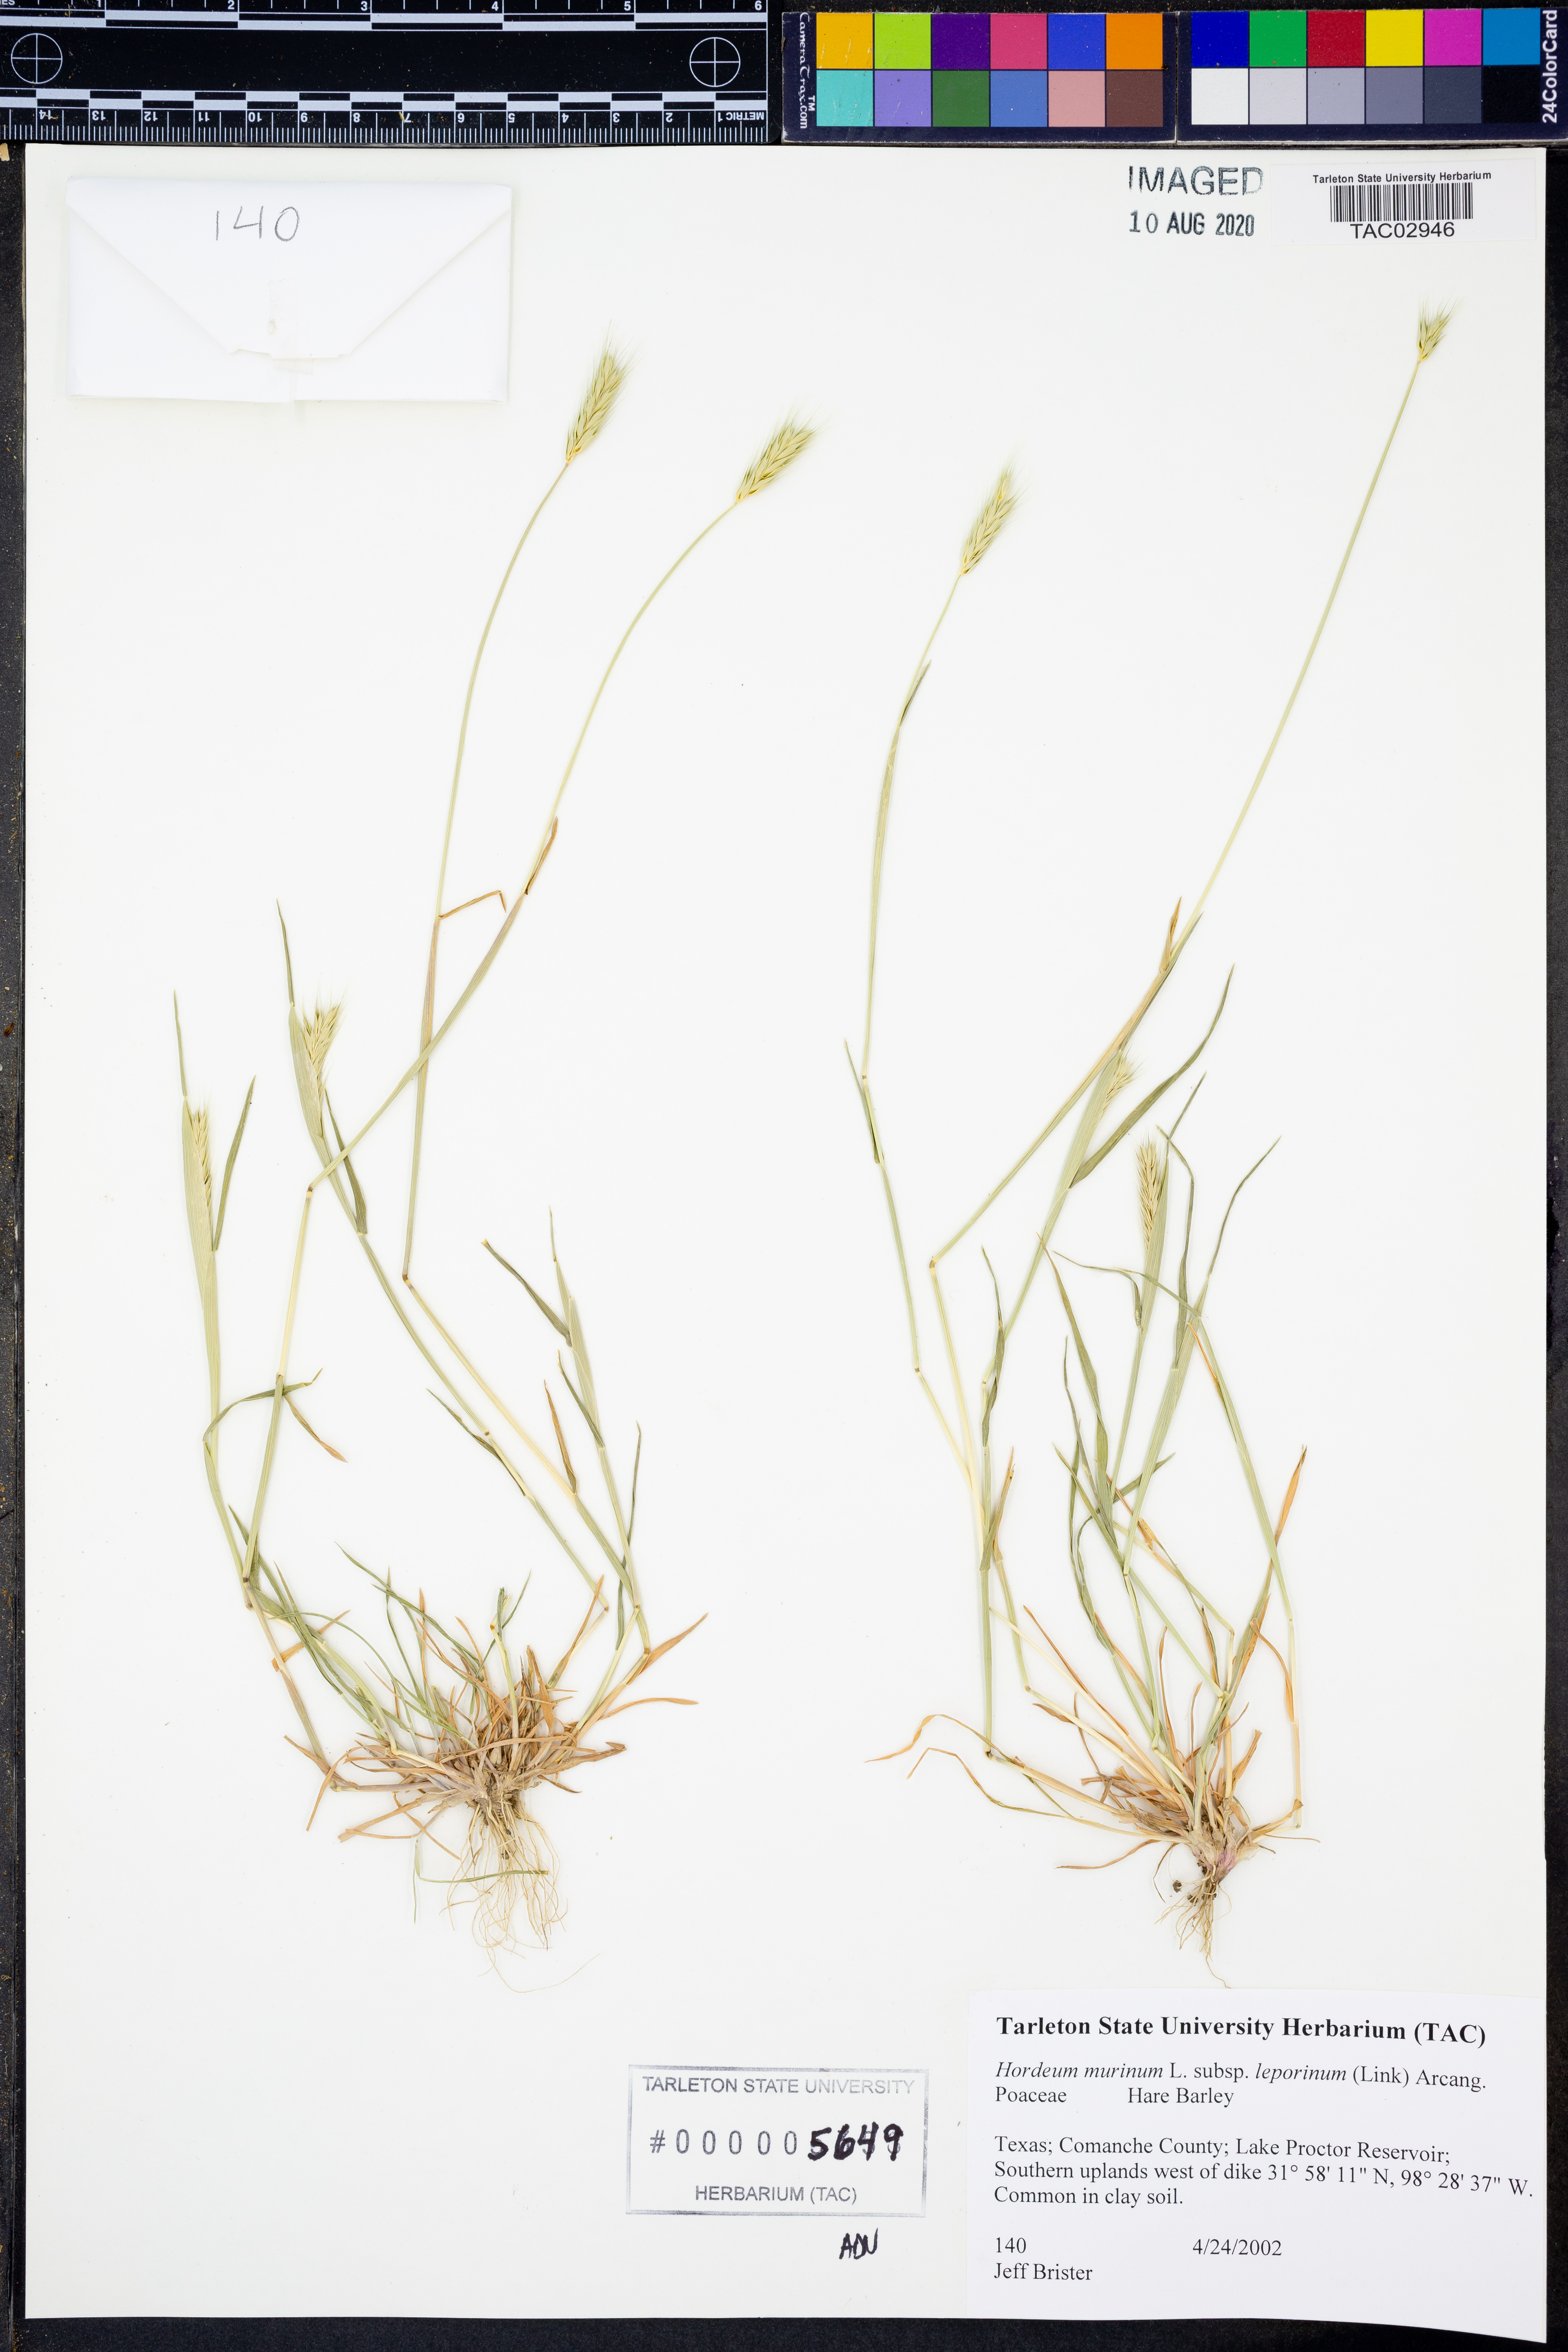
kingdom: Plantae
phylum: Tracheophyta
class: Liliopsida
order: Poales
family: Poaceae
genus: Hordeum
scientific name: Hordeum murinum
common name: Wall barley
